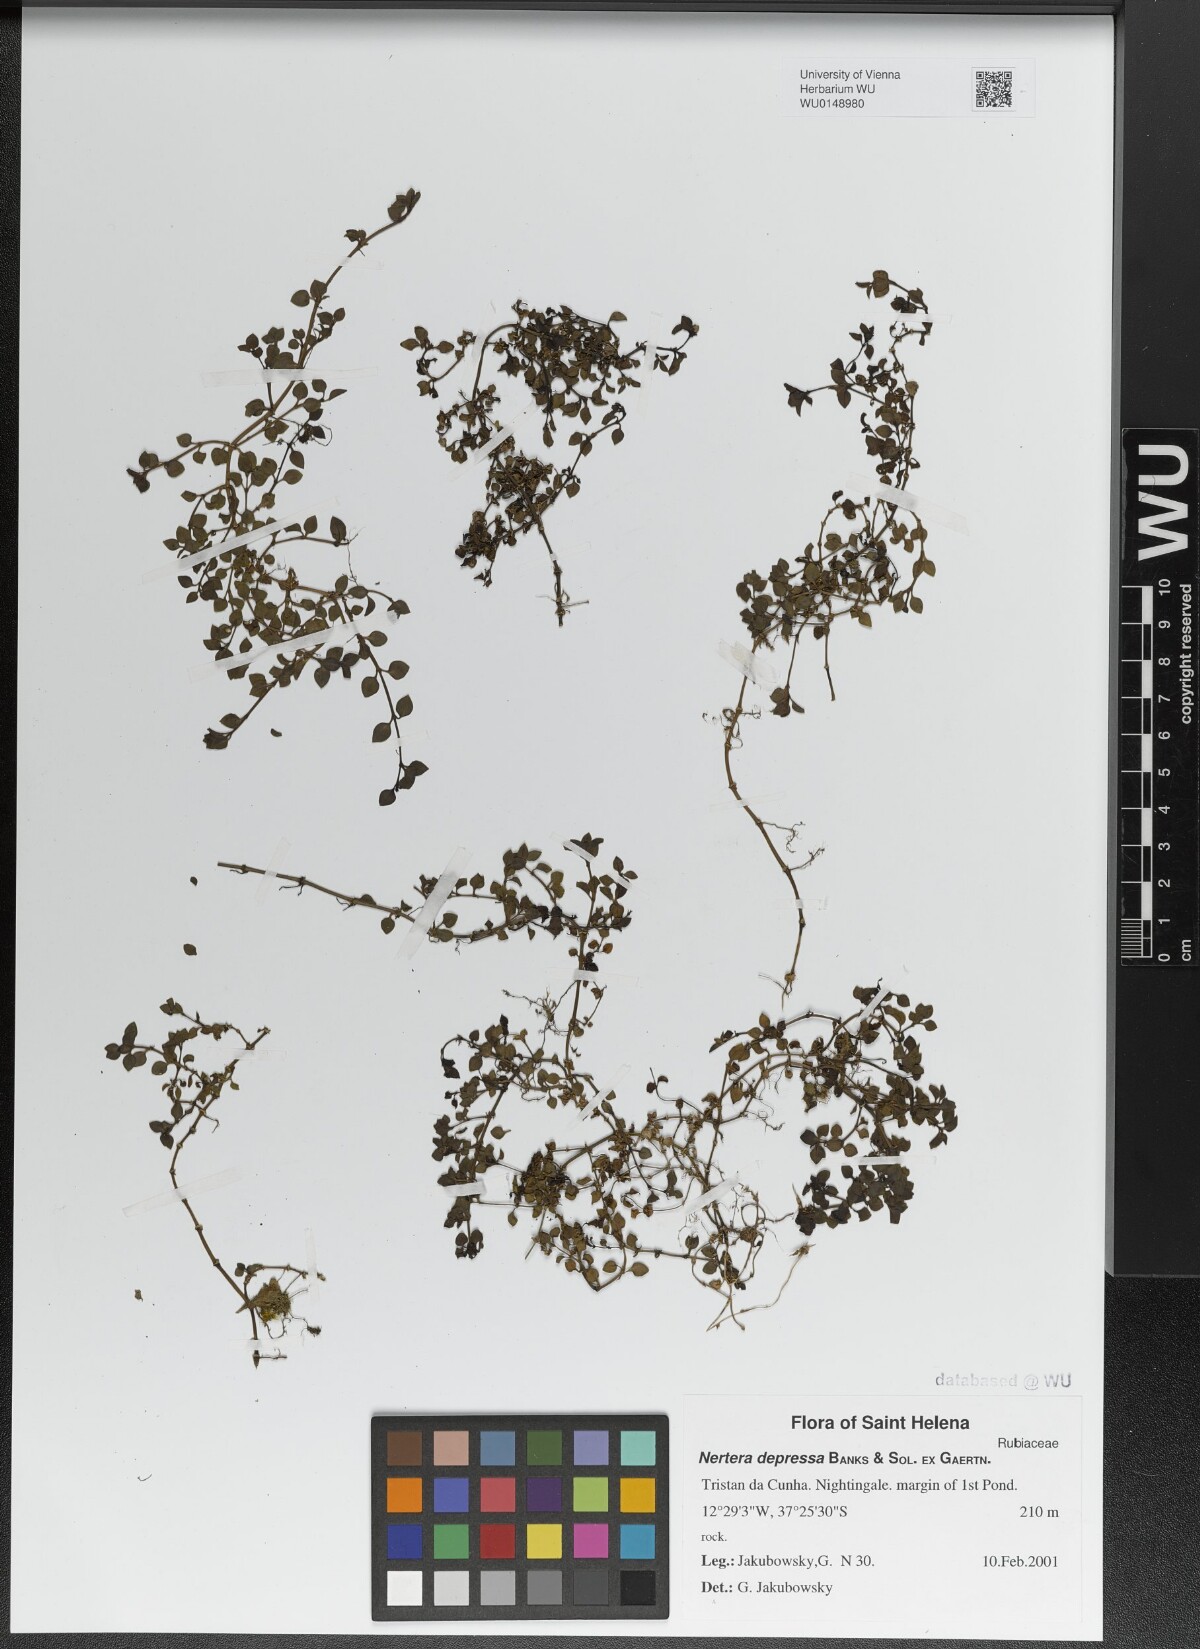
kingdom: Plantae
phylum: Tracheophyta
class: Magnoliopsida
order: Gentianales
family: Rubiaceae
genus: Nertera
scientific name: Nertera granadensis
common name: Beadplant
